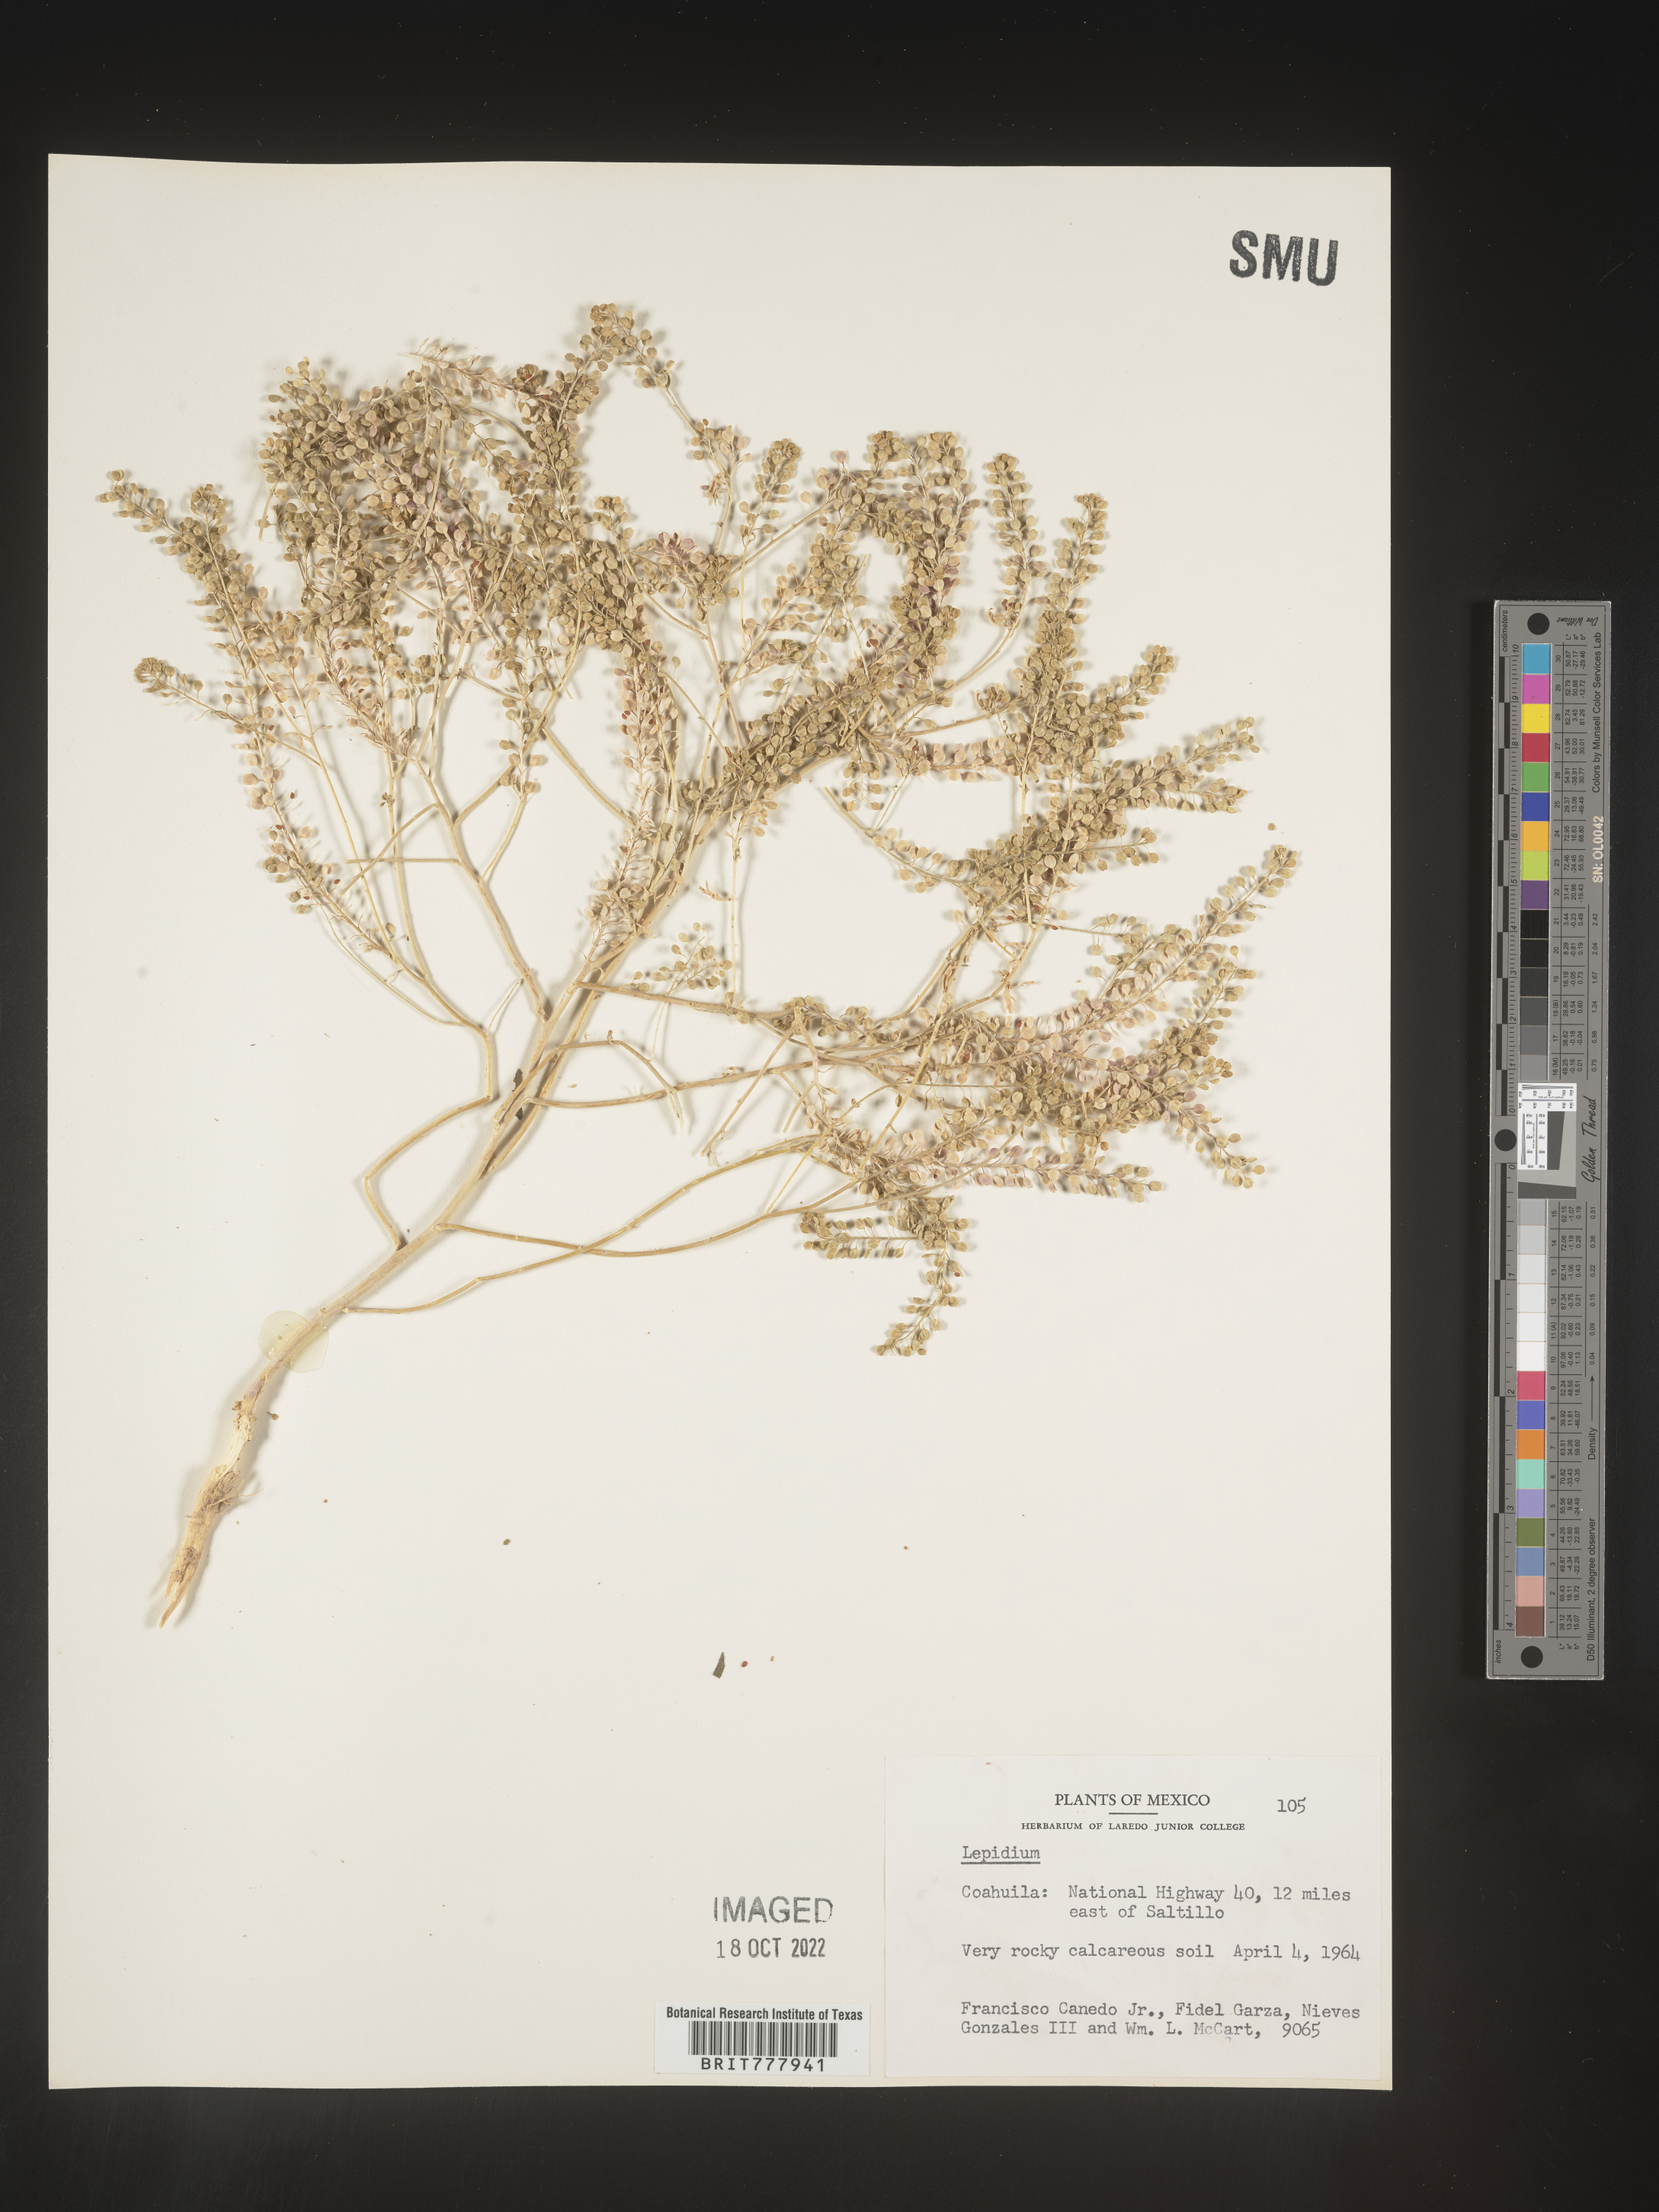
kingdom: Plantae
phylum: Tracheophyta
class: Magnoliopsida
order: Brassicales
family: Brassicaceae
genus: Lepidium
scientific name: Lepidium
